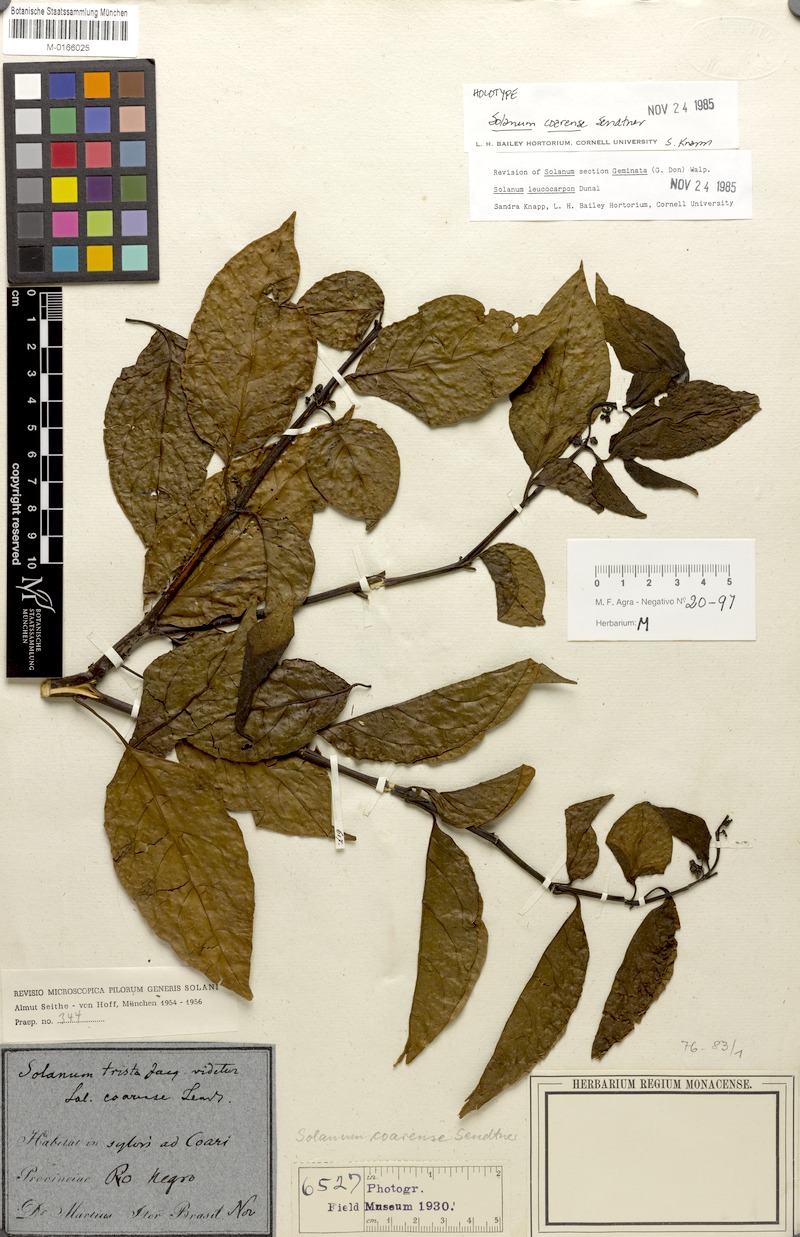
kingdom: Plantae
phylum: Tracheophyta
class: Magnoliopsida
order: Solanales
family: Solanaceae
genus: Solanum
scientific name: Solanum leucocarpon
